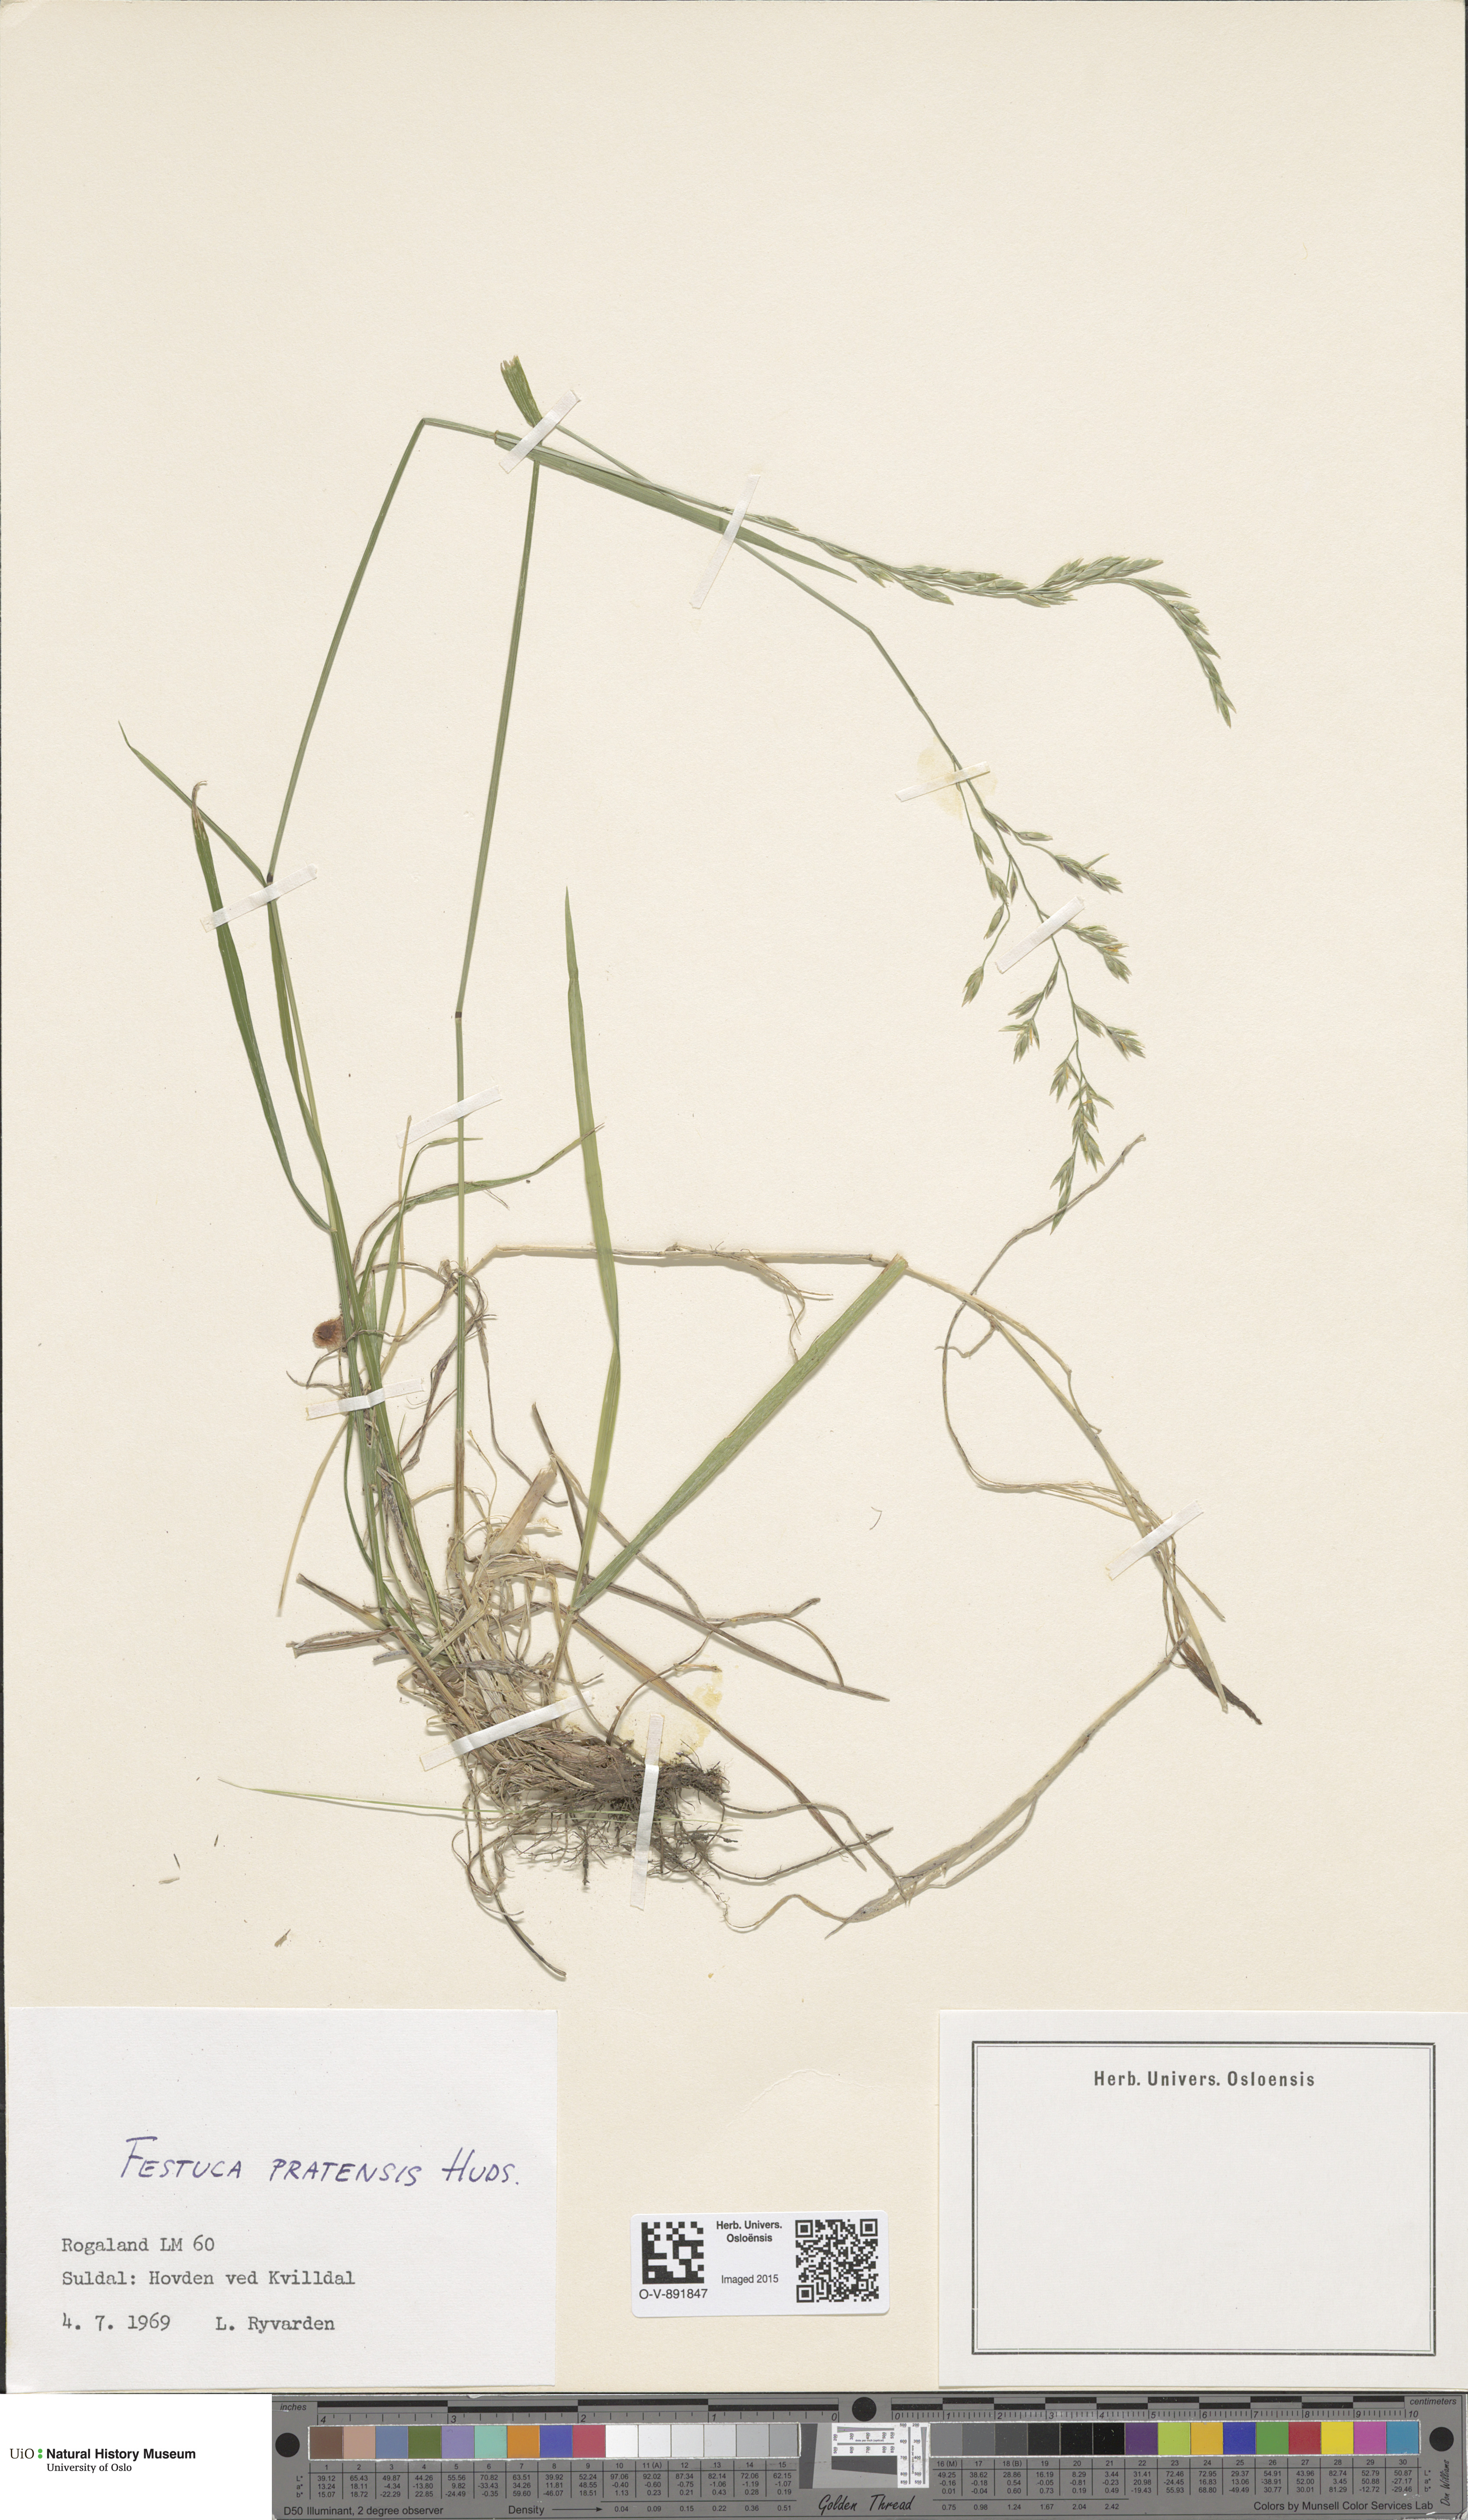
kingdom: Plantae
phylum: Tracheophyta
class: Liliopsida
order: Poales
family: Poaceae
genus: Lolium
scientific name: Lolium pratense
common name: Dover grass
